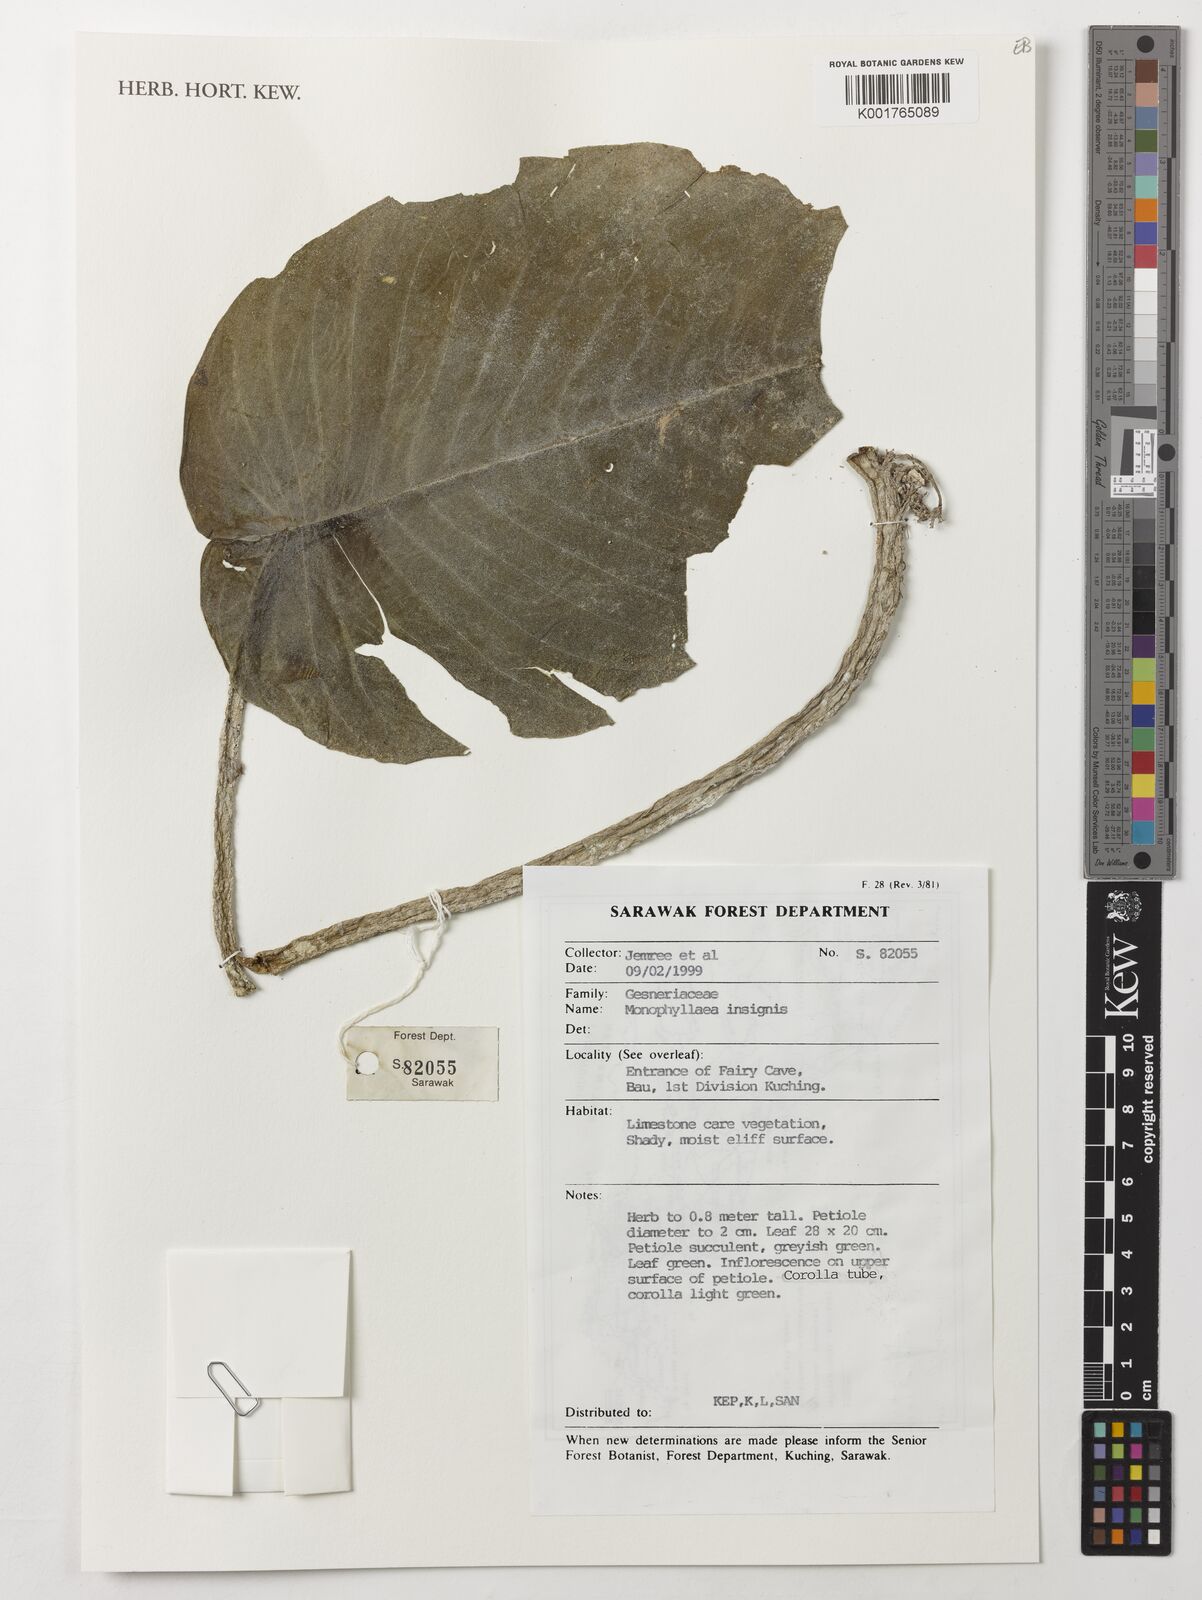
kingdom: Plantae
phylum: Tracheophyta
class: Magnoliopsida
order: Lamiales
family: Gesneriaceae
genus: Monophyllaea
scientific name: Monophyllaea insignis
